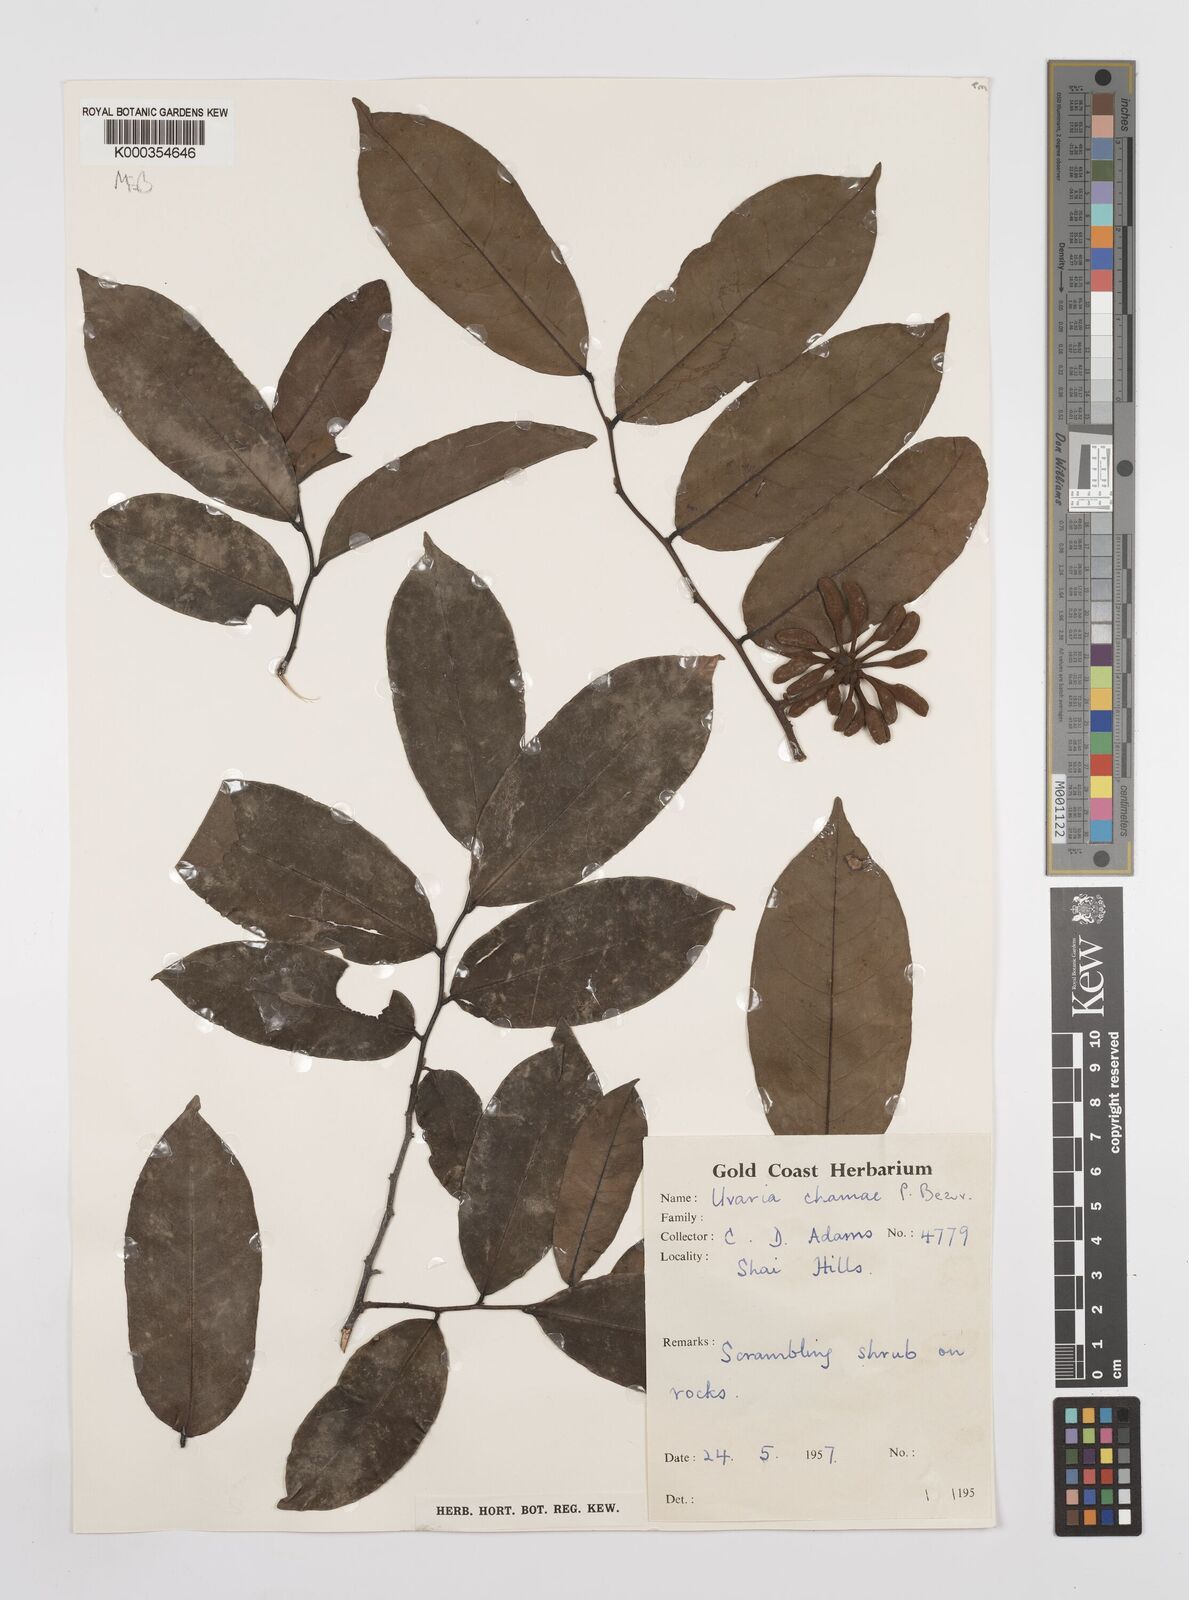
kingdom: Plantae
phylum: Tracheophyta
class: Magnoliopsida
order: Magnoliales
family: Annonaceae
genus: Uvaria
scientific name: Uvaria chamae
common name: Finger-root
